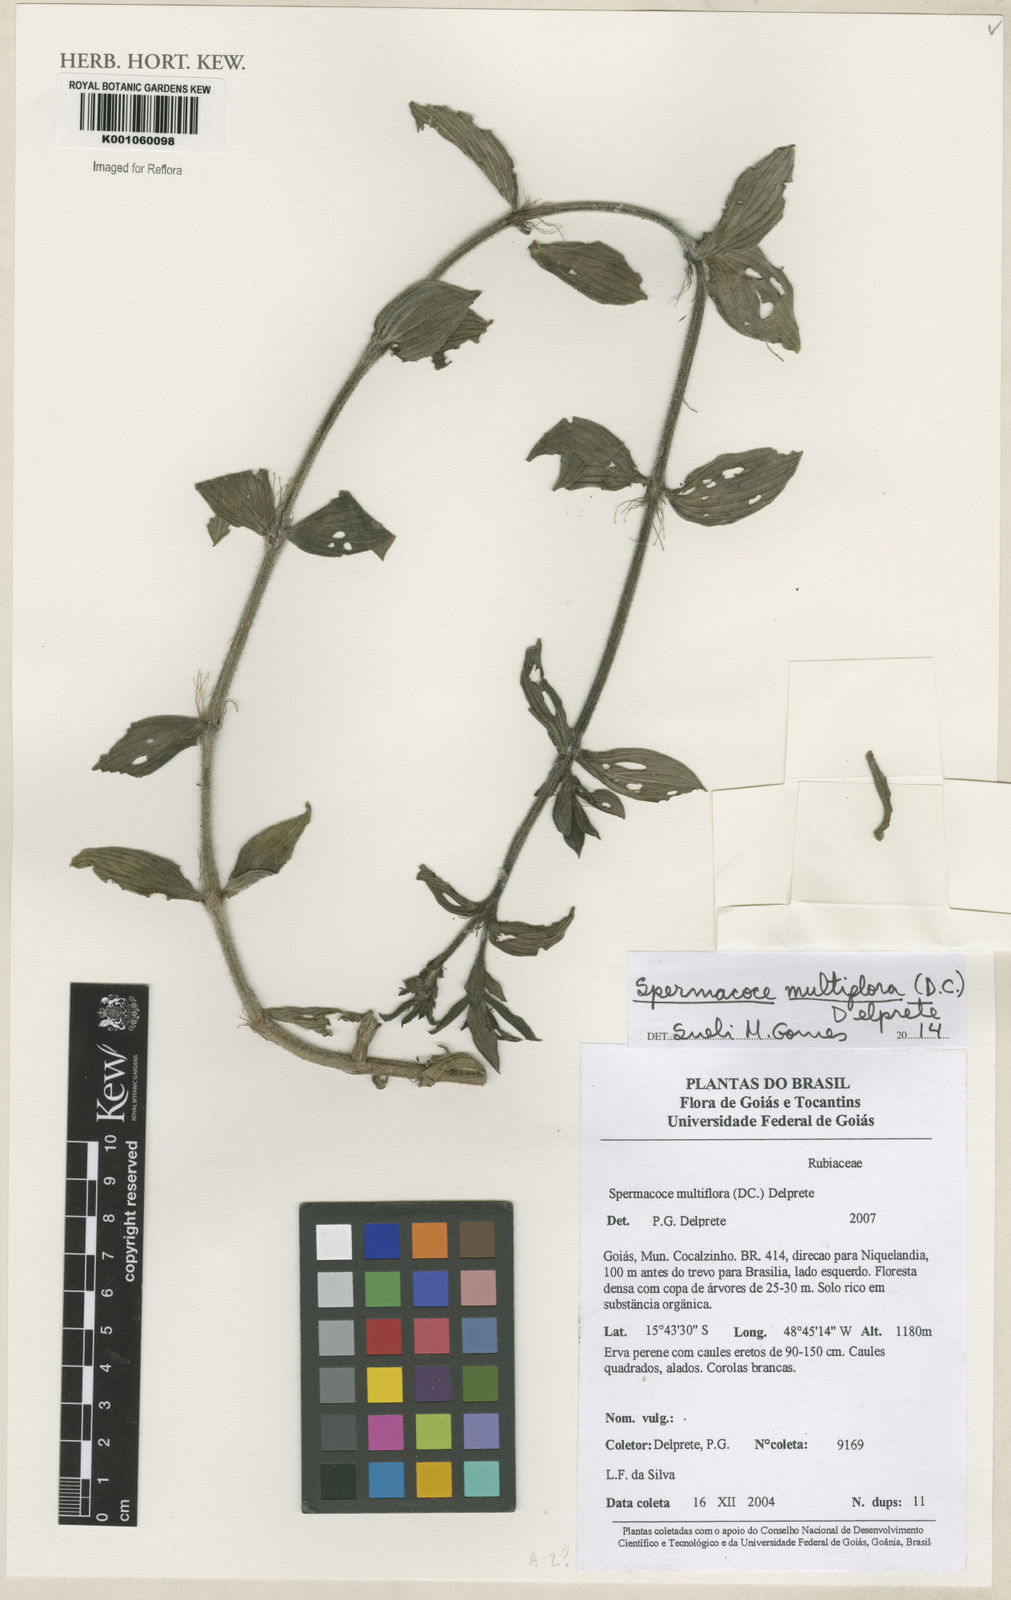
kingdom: Plantae
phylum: Tracheophyta
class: Magnoliopsida
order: Gentianales
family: Rubiaceae
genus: Spermacoce
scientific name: Spermacoce multiflora
